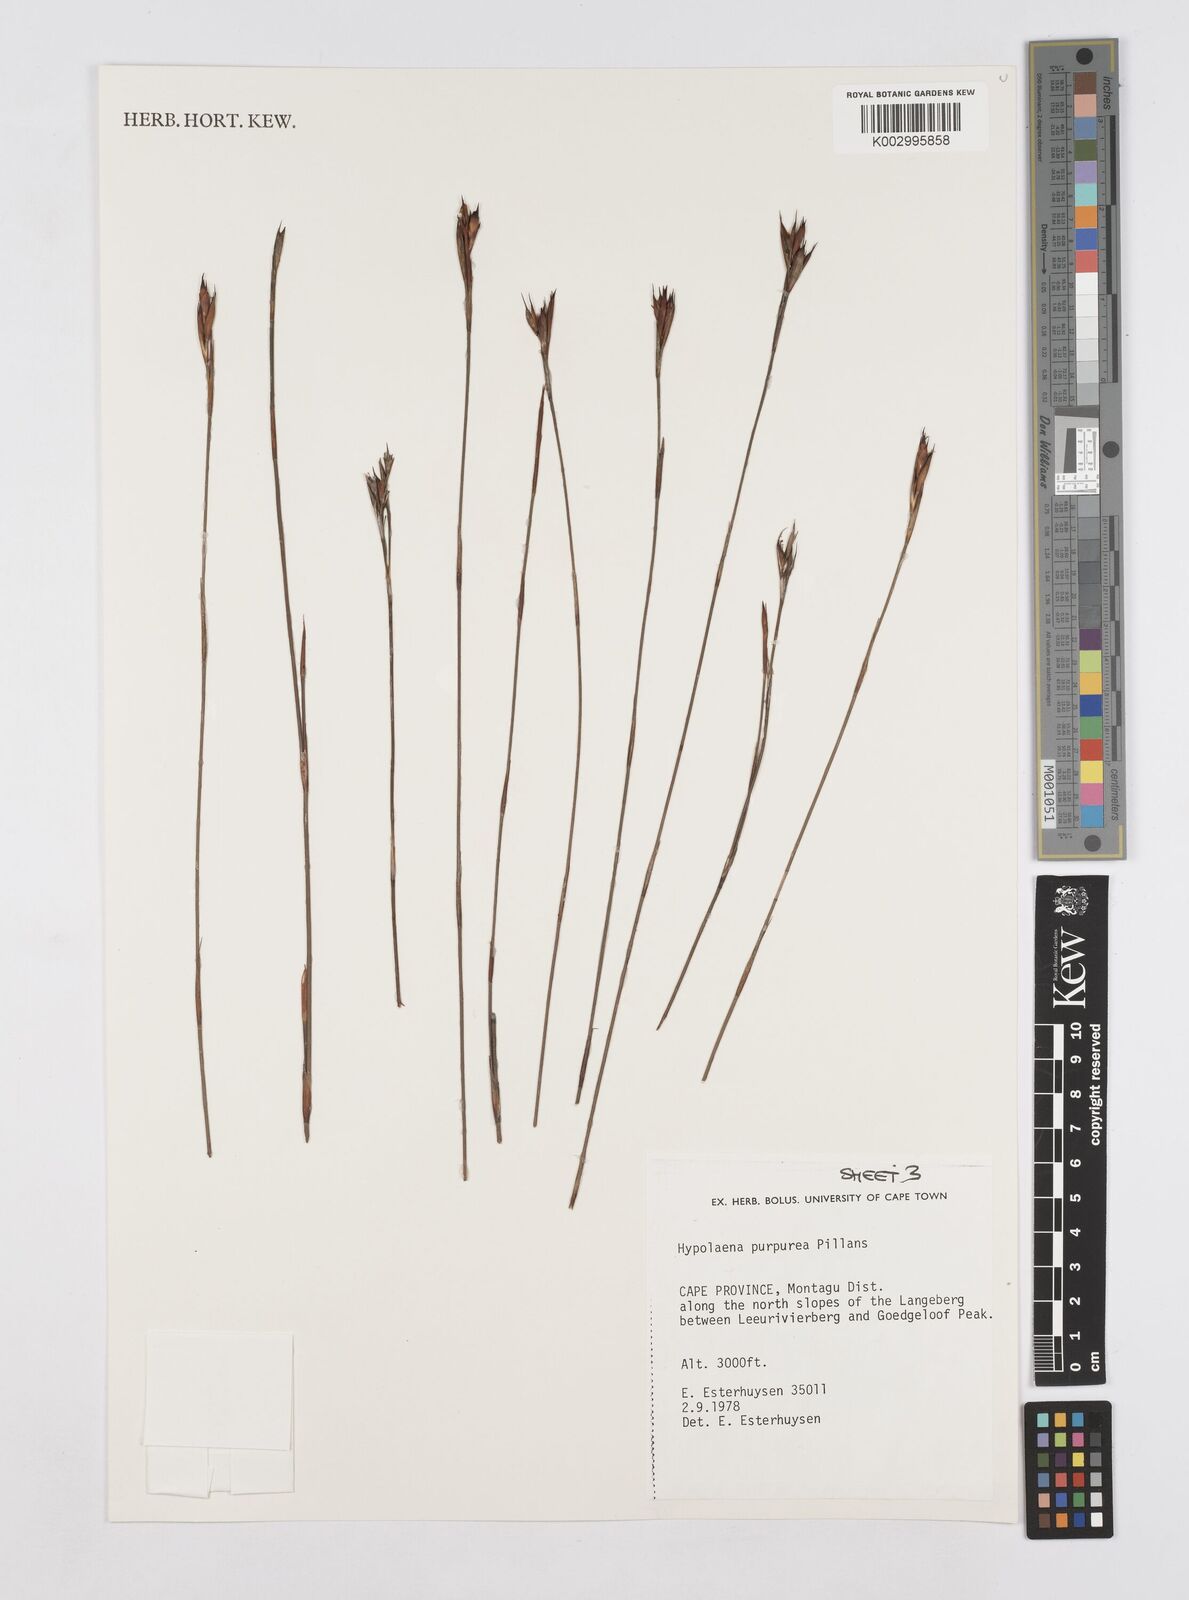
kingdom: Plantae
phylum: Tracheophyta
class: Liliopsida
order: Poales
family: Restionaceae
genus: Mastersiella
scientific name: Mastersiella purpurea
